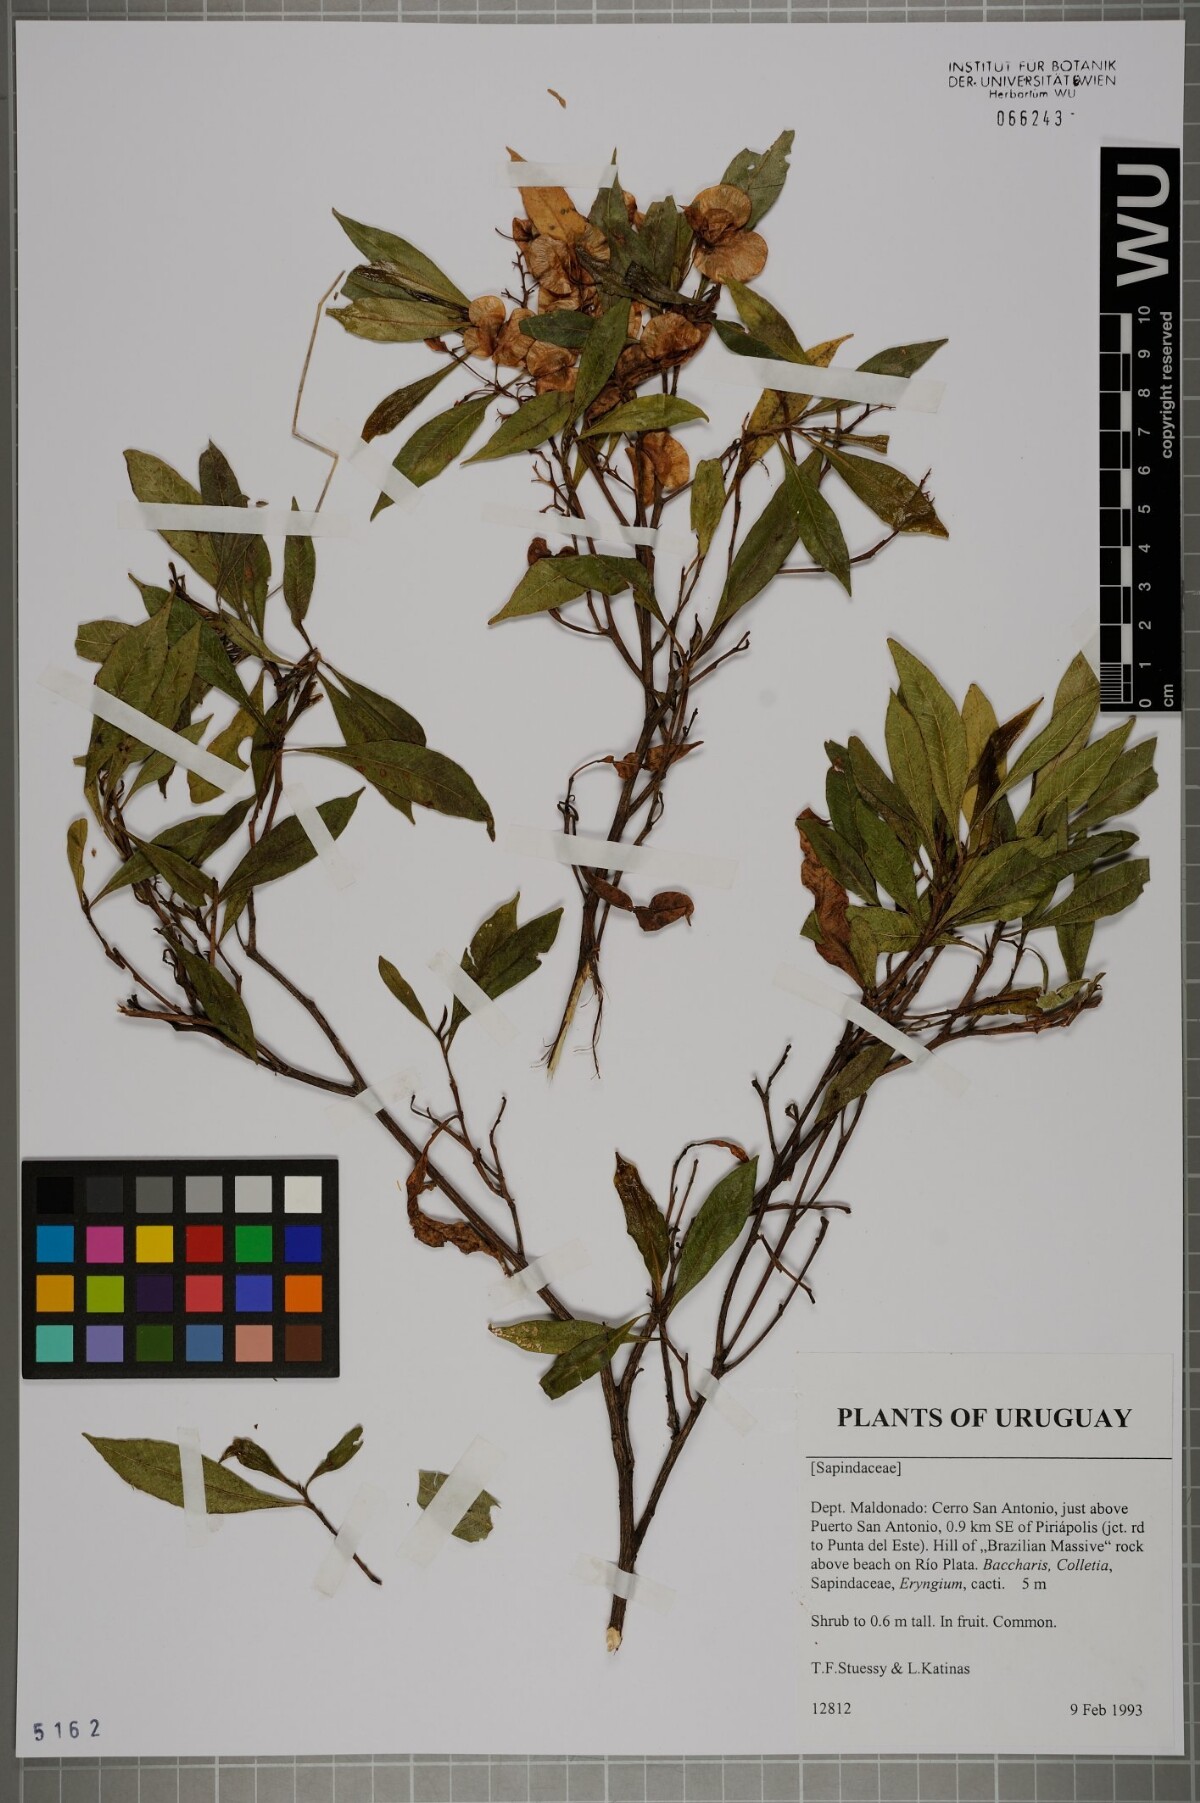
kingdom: Plantae
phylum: Tracheophyta
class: Magnoliopsida
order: Sapindales
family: Sapindaceae
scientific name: Sapindaceae
